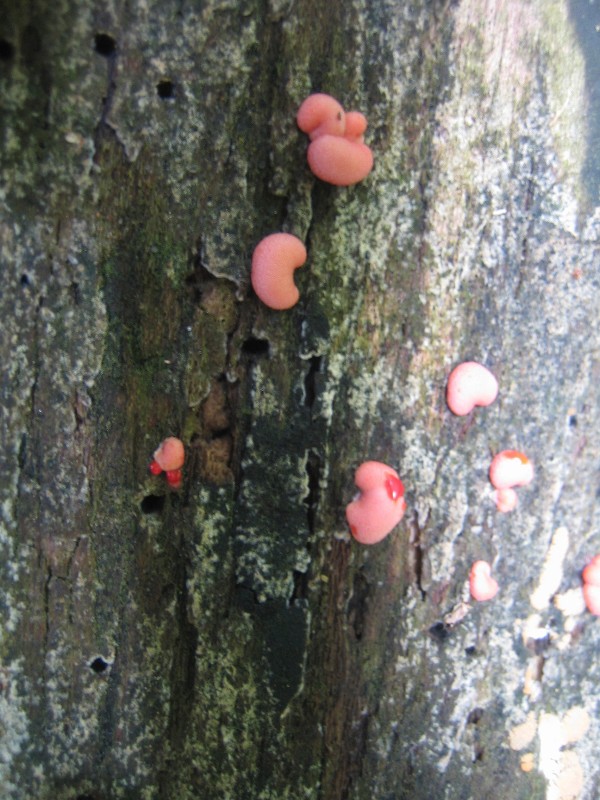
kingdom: Protozoa
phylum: Mycetozoa
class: Myxomycetes
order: Cribrariales
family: Tubiferaceae
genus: Lycogala
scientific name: Lycogala epidendrum
